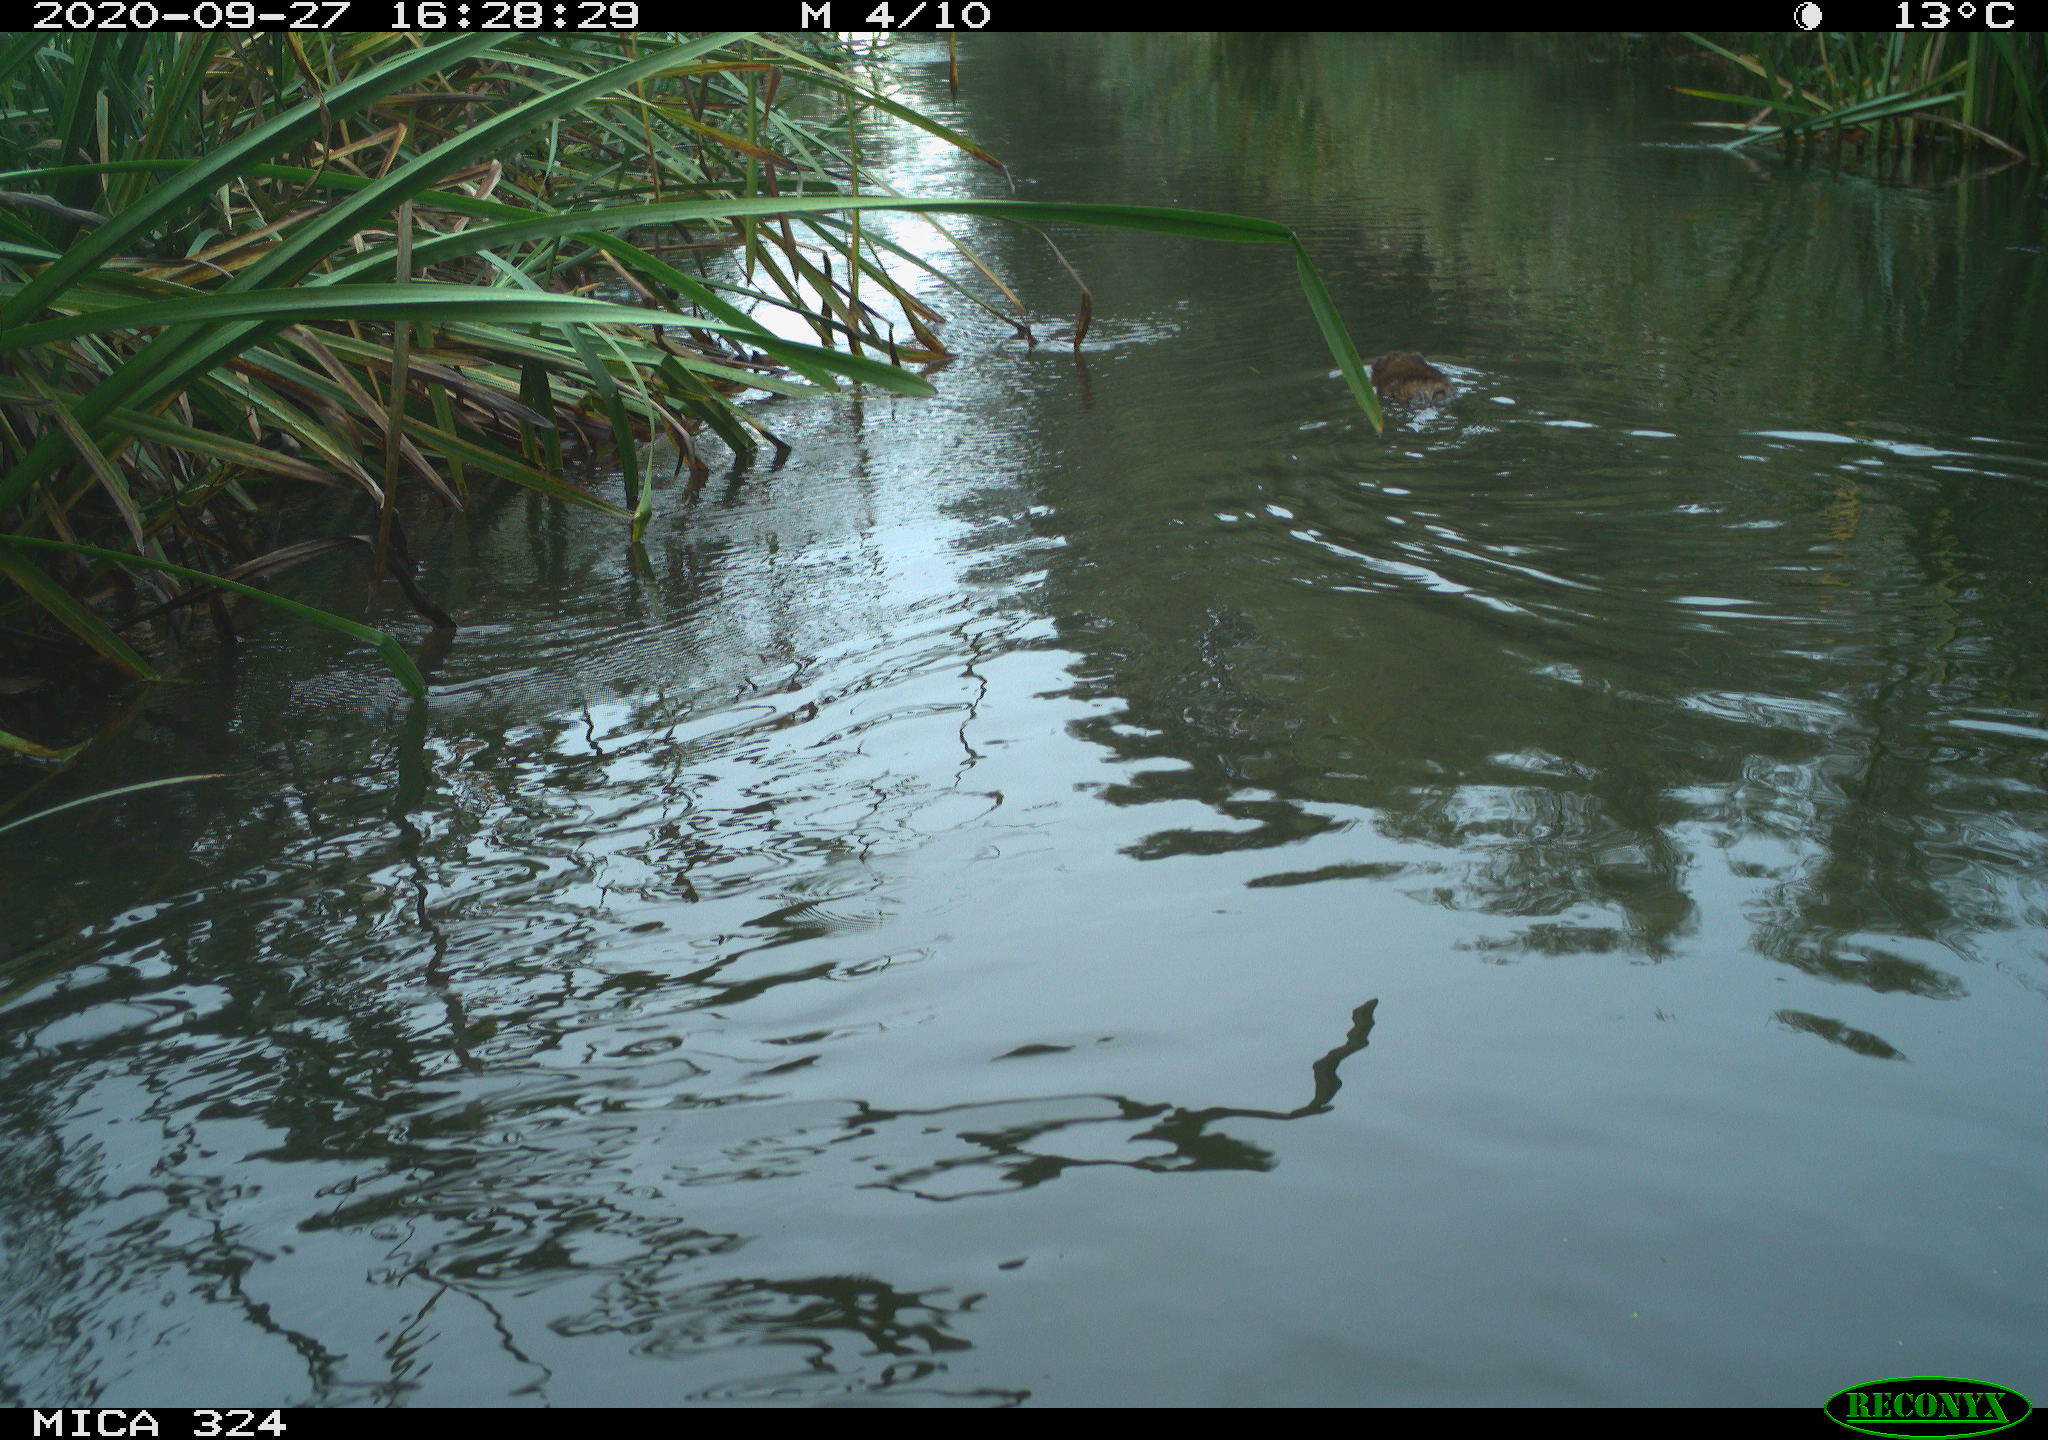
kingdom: Animalia
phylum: Chordata
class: Mammalia
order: Rodentia
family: Cricetidae
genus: Ondatra
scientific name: Ondatra zibethicus
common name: Muskrat
